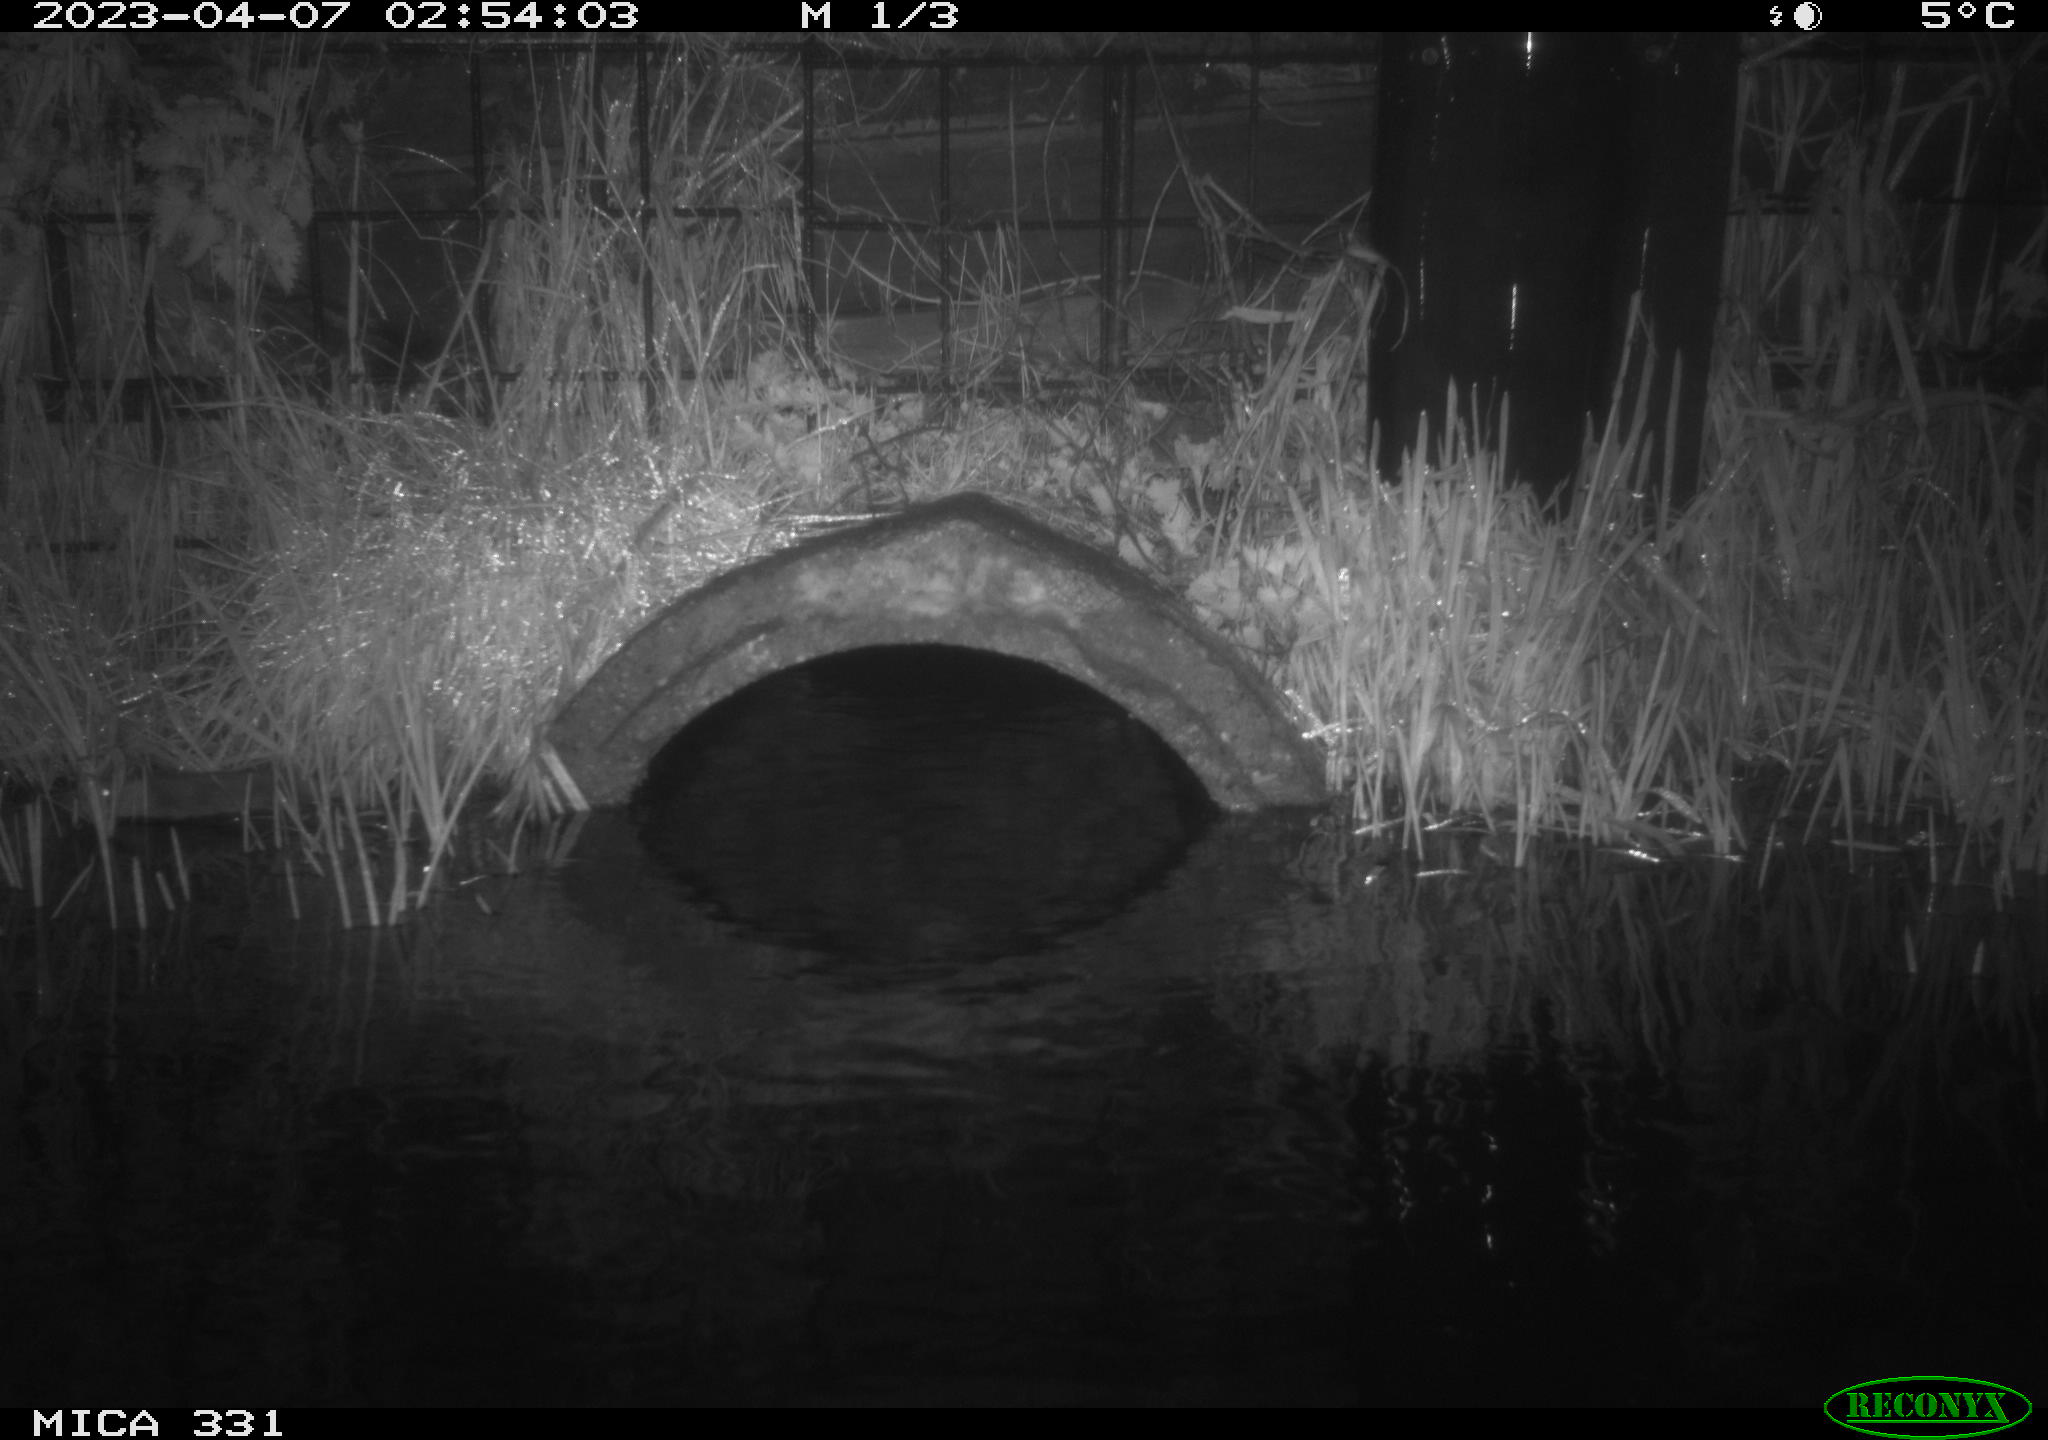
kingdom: Animalia
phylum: Chordata
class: Mammalia
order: Rodentia
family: Muridae
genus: Rattus
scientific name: Rattus norvegicus
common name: Brown rat
